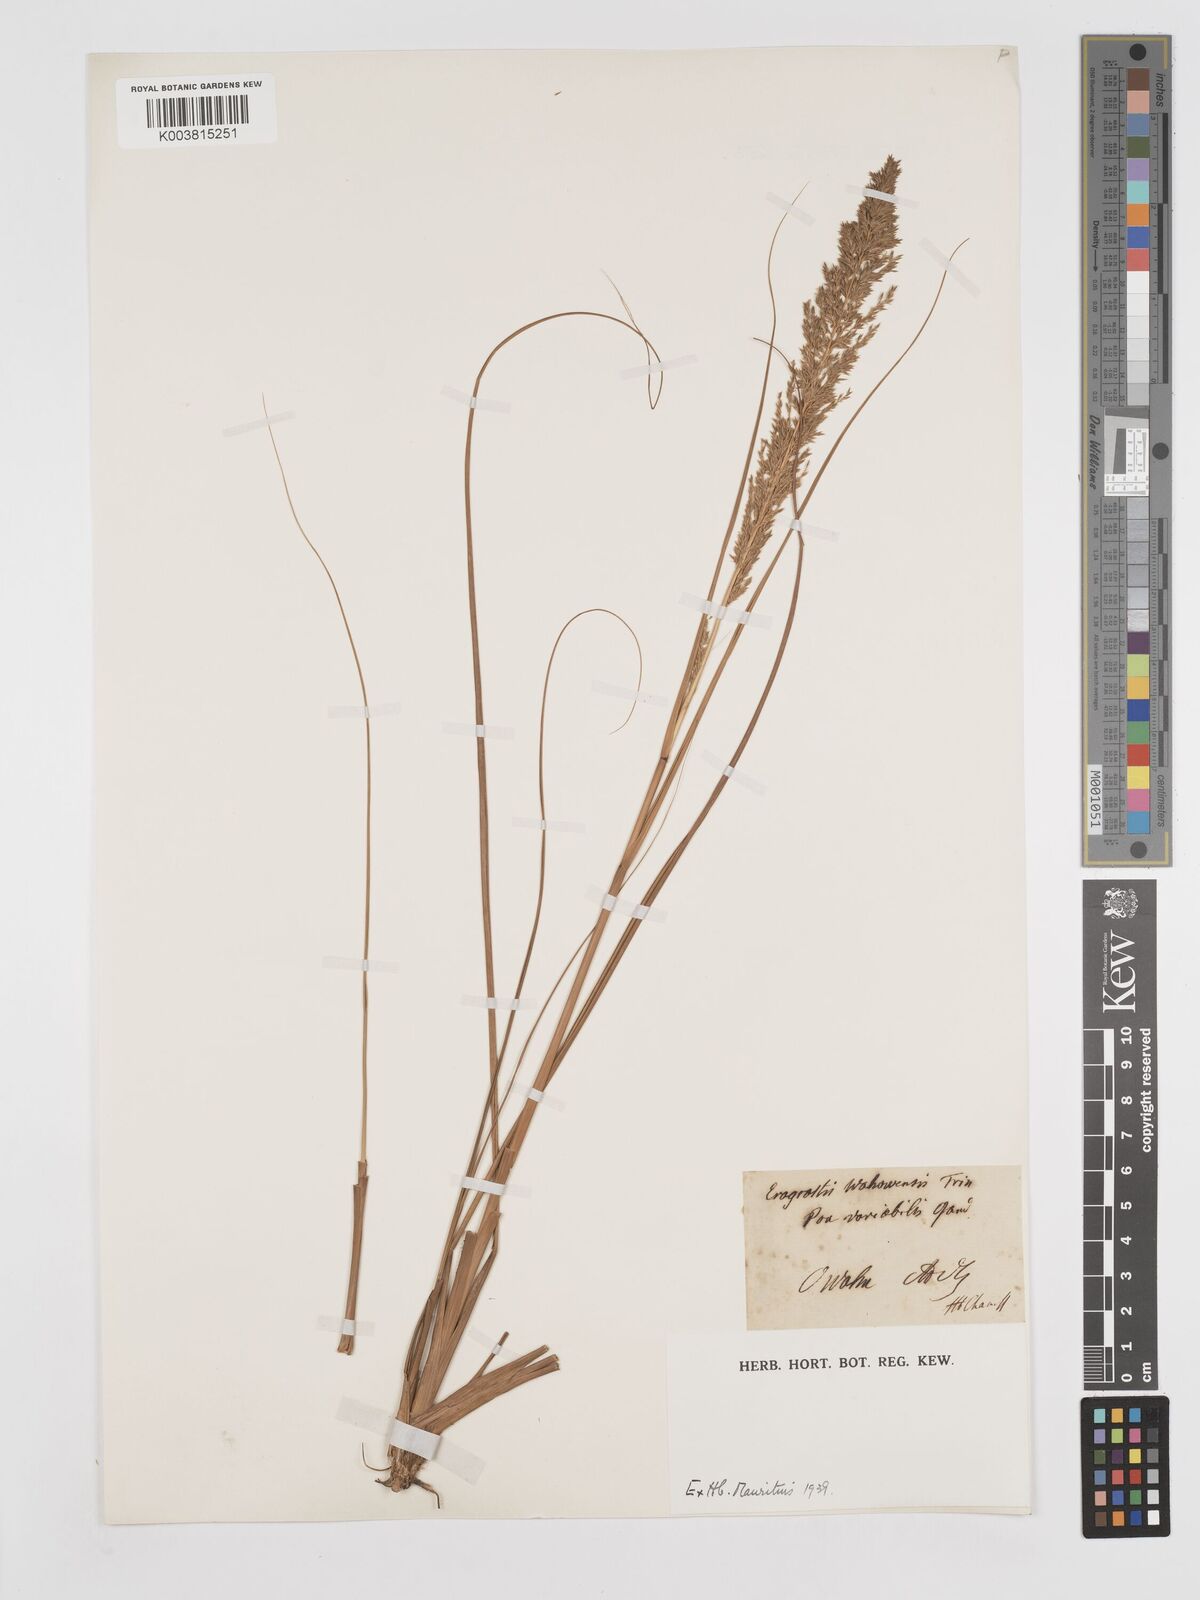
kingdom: Plantae
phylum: Tracheophyta
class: Liliopsida
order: Poales
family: Poaceae
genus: Eragrostis
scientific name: Eragrostis variabilis
